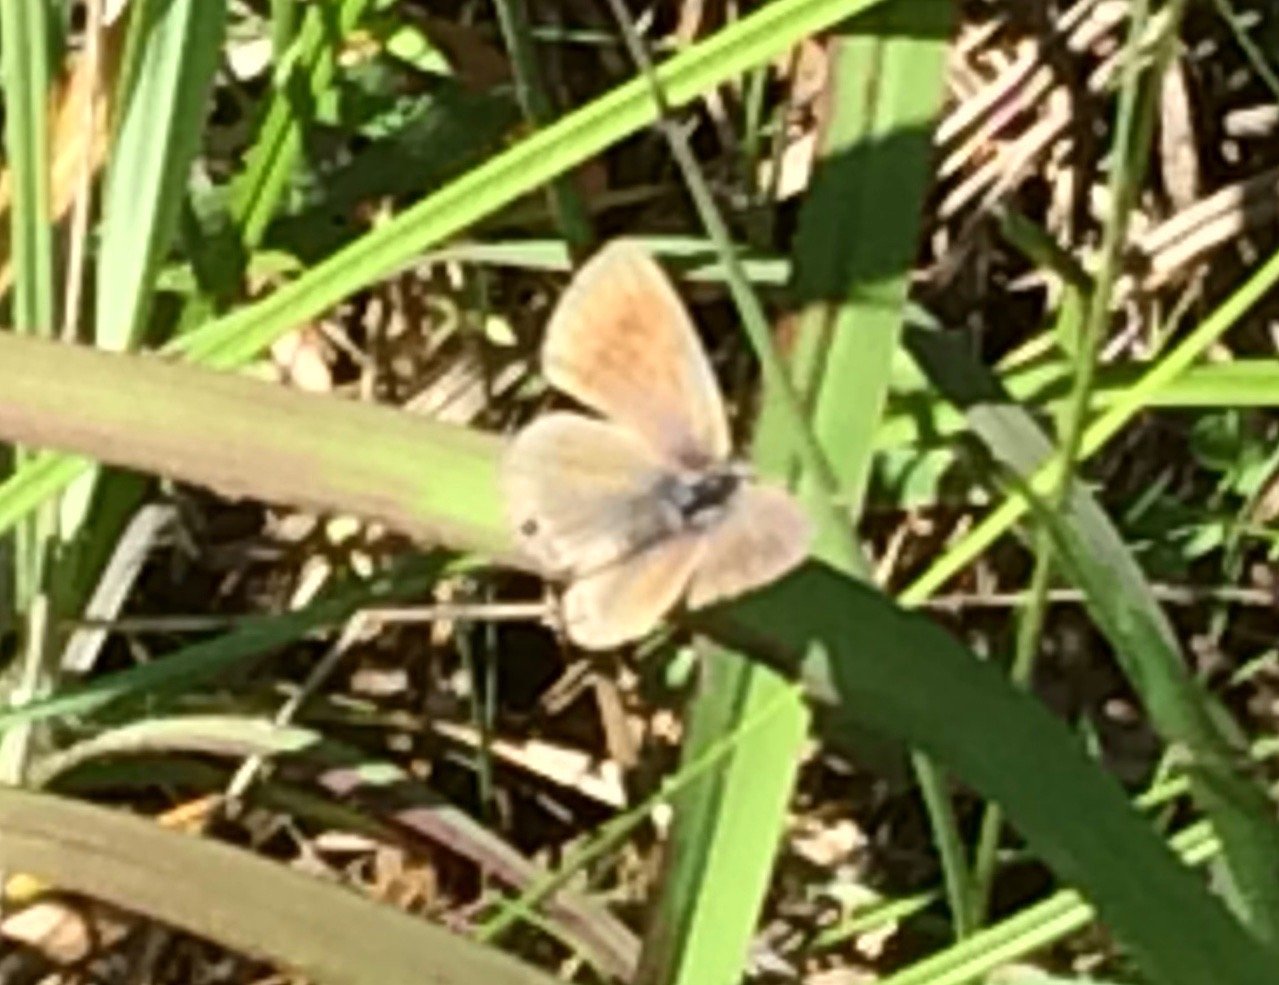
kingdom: Animalia
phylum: Arthropoda
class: Insecta
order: Lepidoptera
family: Lycaenidae
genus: Echinargus
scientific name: Echinargus isola
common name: Reakirt's Blue
